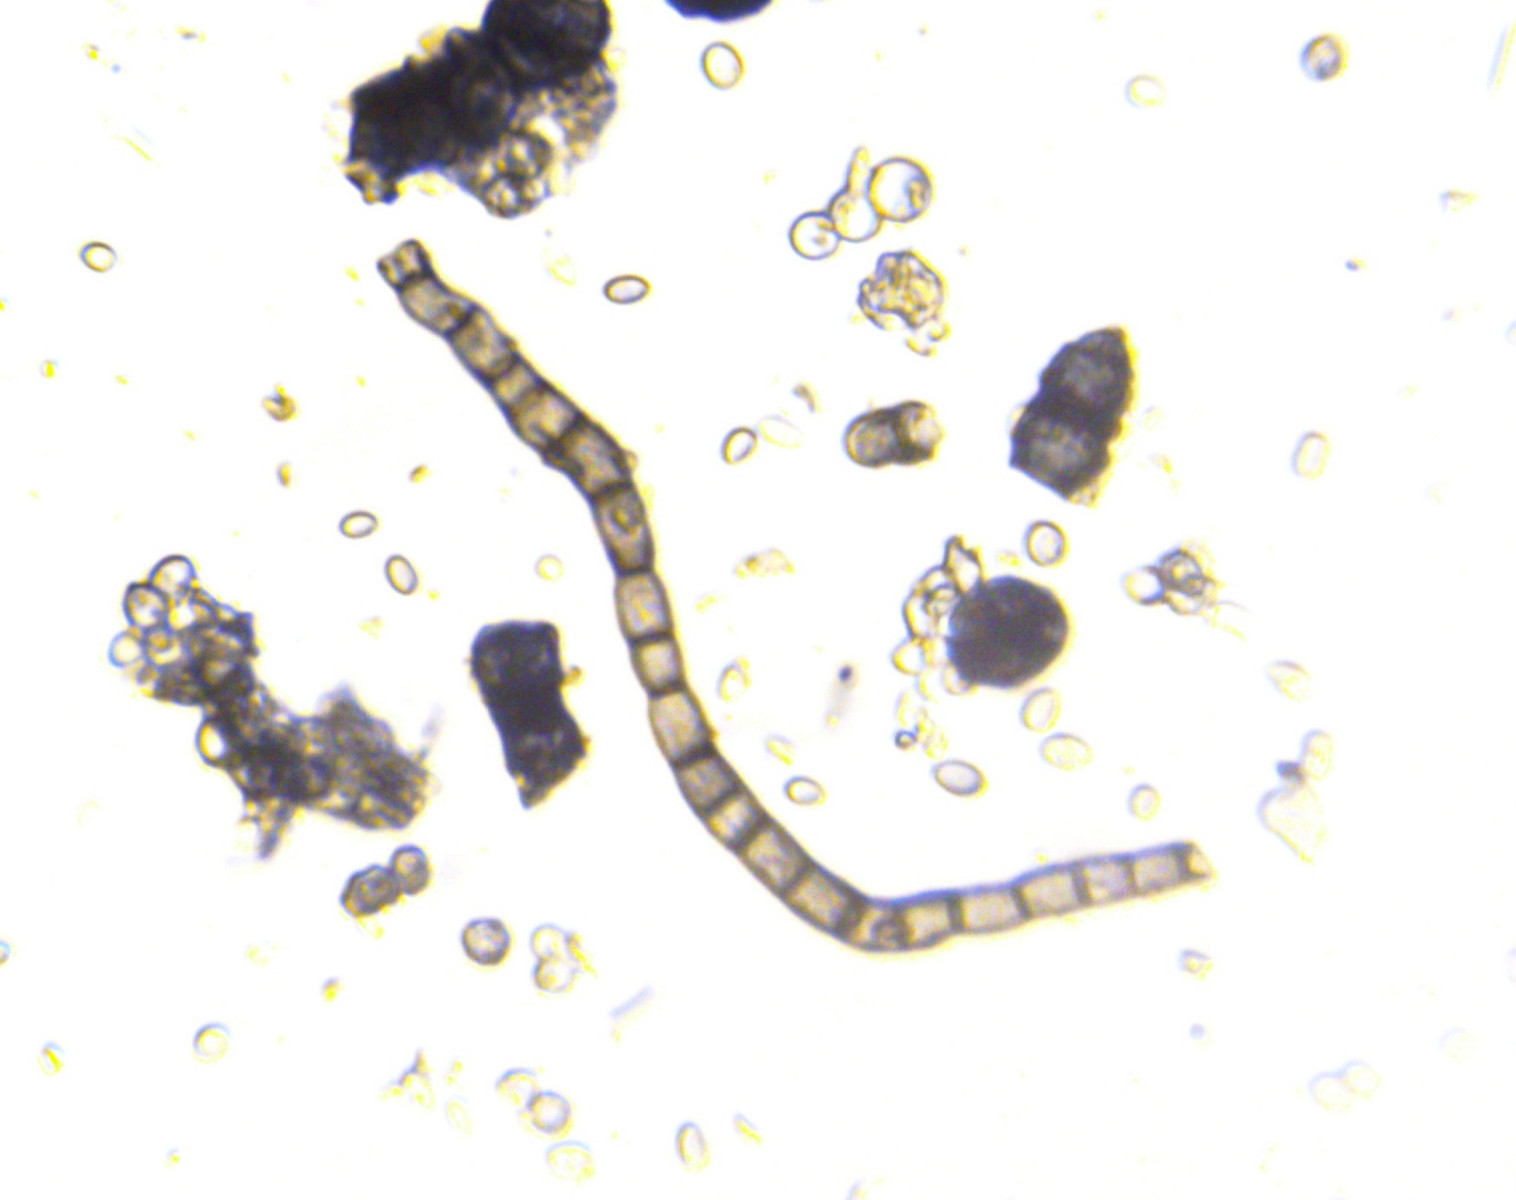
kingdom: Fungi
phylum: Ascomycota
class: Dothideomycetes
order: Capnodiales
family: Euantennariaceae
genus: Strigopodia
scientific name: Strigopodia resinae
